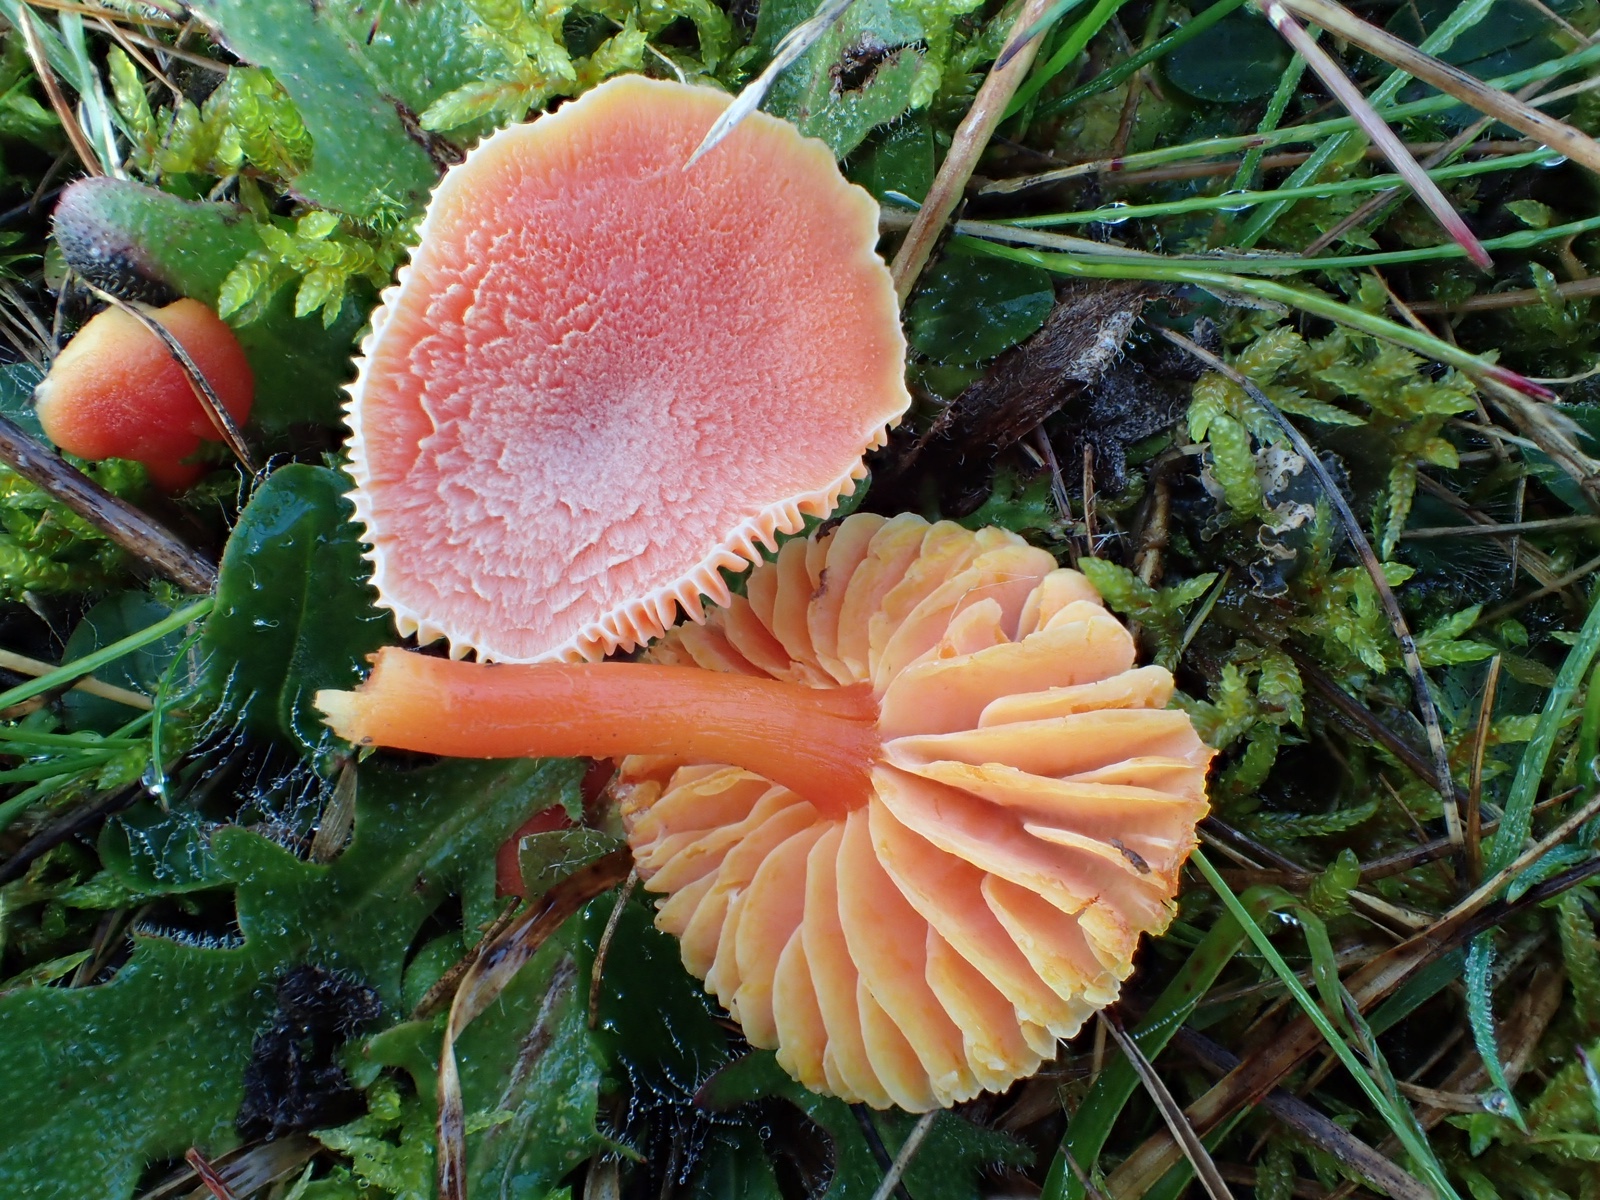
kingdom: Fungi
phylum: Basidiomycota
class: Agaricomycetes
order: Agaricales
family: Hygrophoraceae
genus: Hygrocybe
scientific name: Hygrocybe miniata
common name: mønje-vokshat
